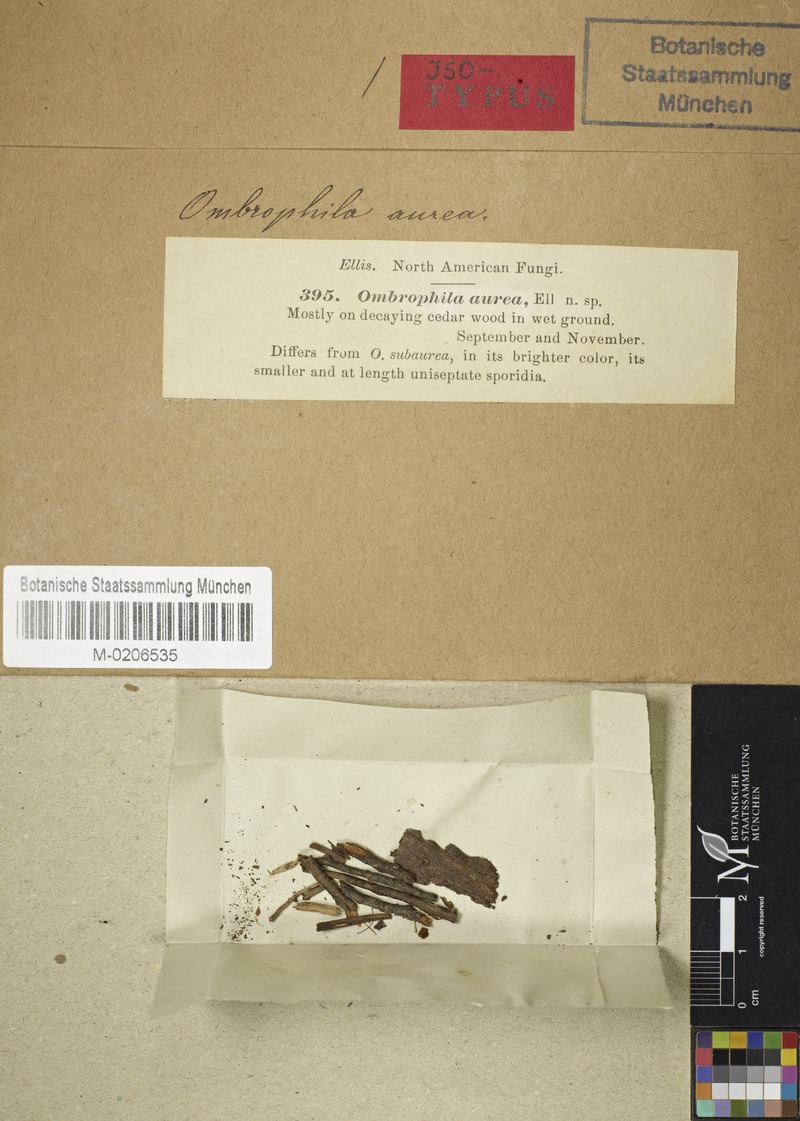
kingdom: Fungi
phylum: Ascomycota
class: Leotiomycetes
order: Helotiales
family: Gelatinodiscaceae
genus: Ombrophila
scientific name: Ombrophila aurea
